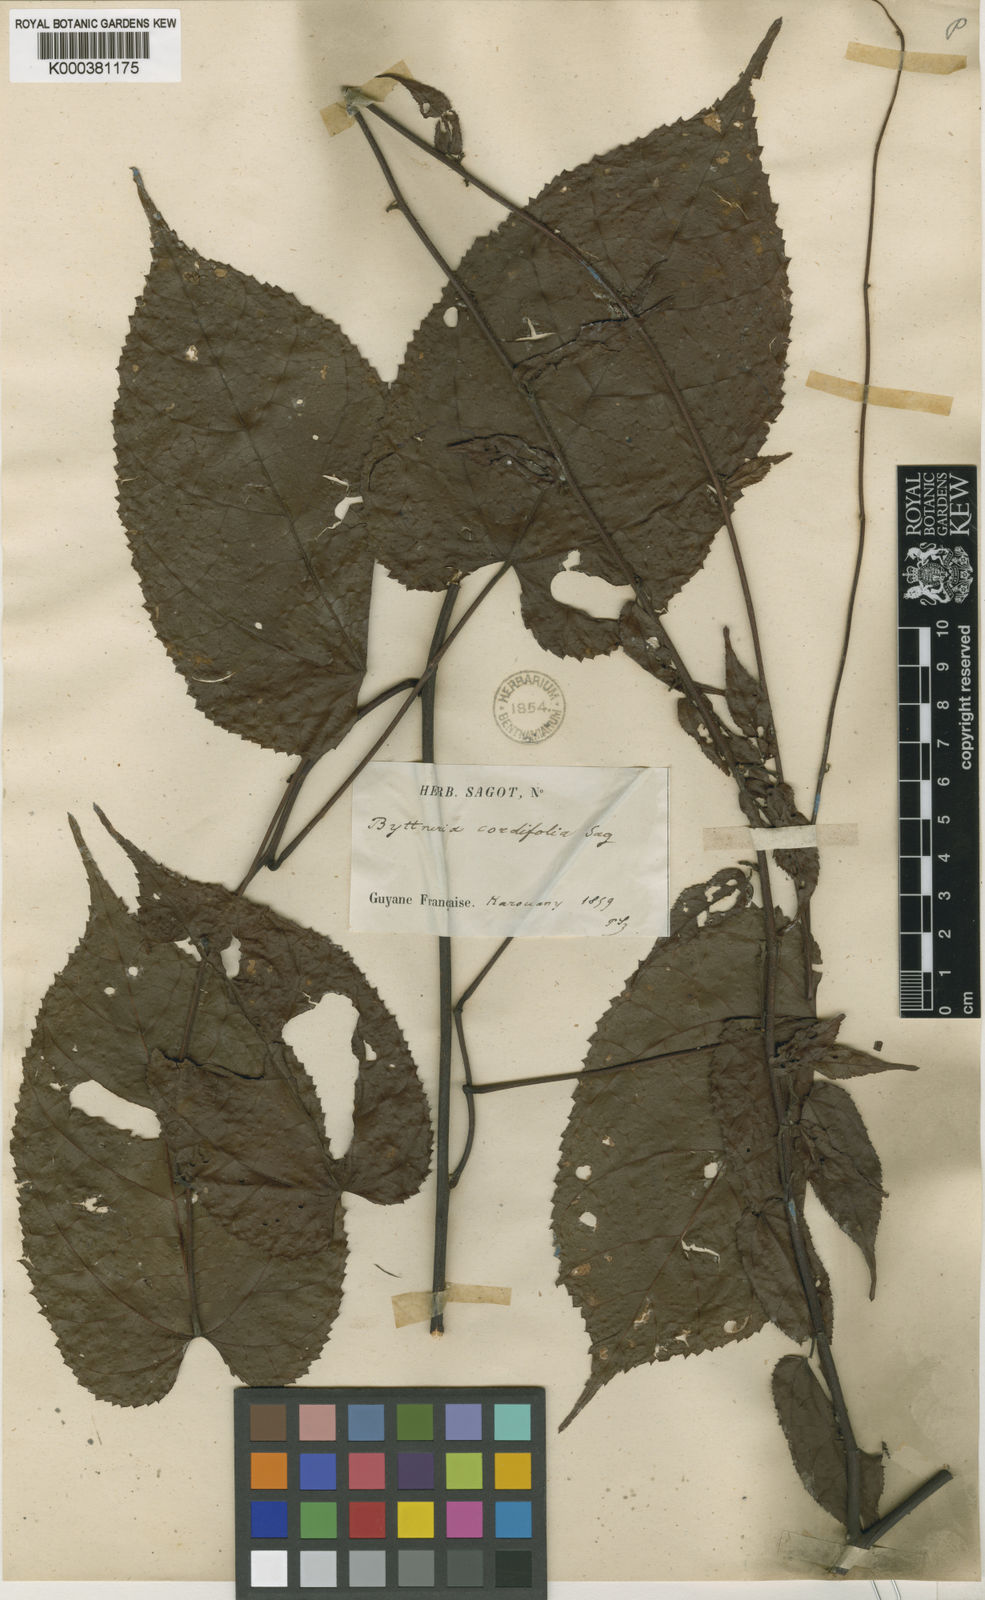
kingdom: Plantae
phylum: Tracheophyta
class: Magnoliopsida
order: Malvales
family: Malvaceae
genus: Byttneria
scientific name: Byttneria cordifolia
